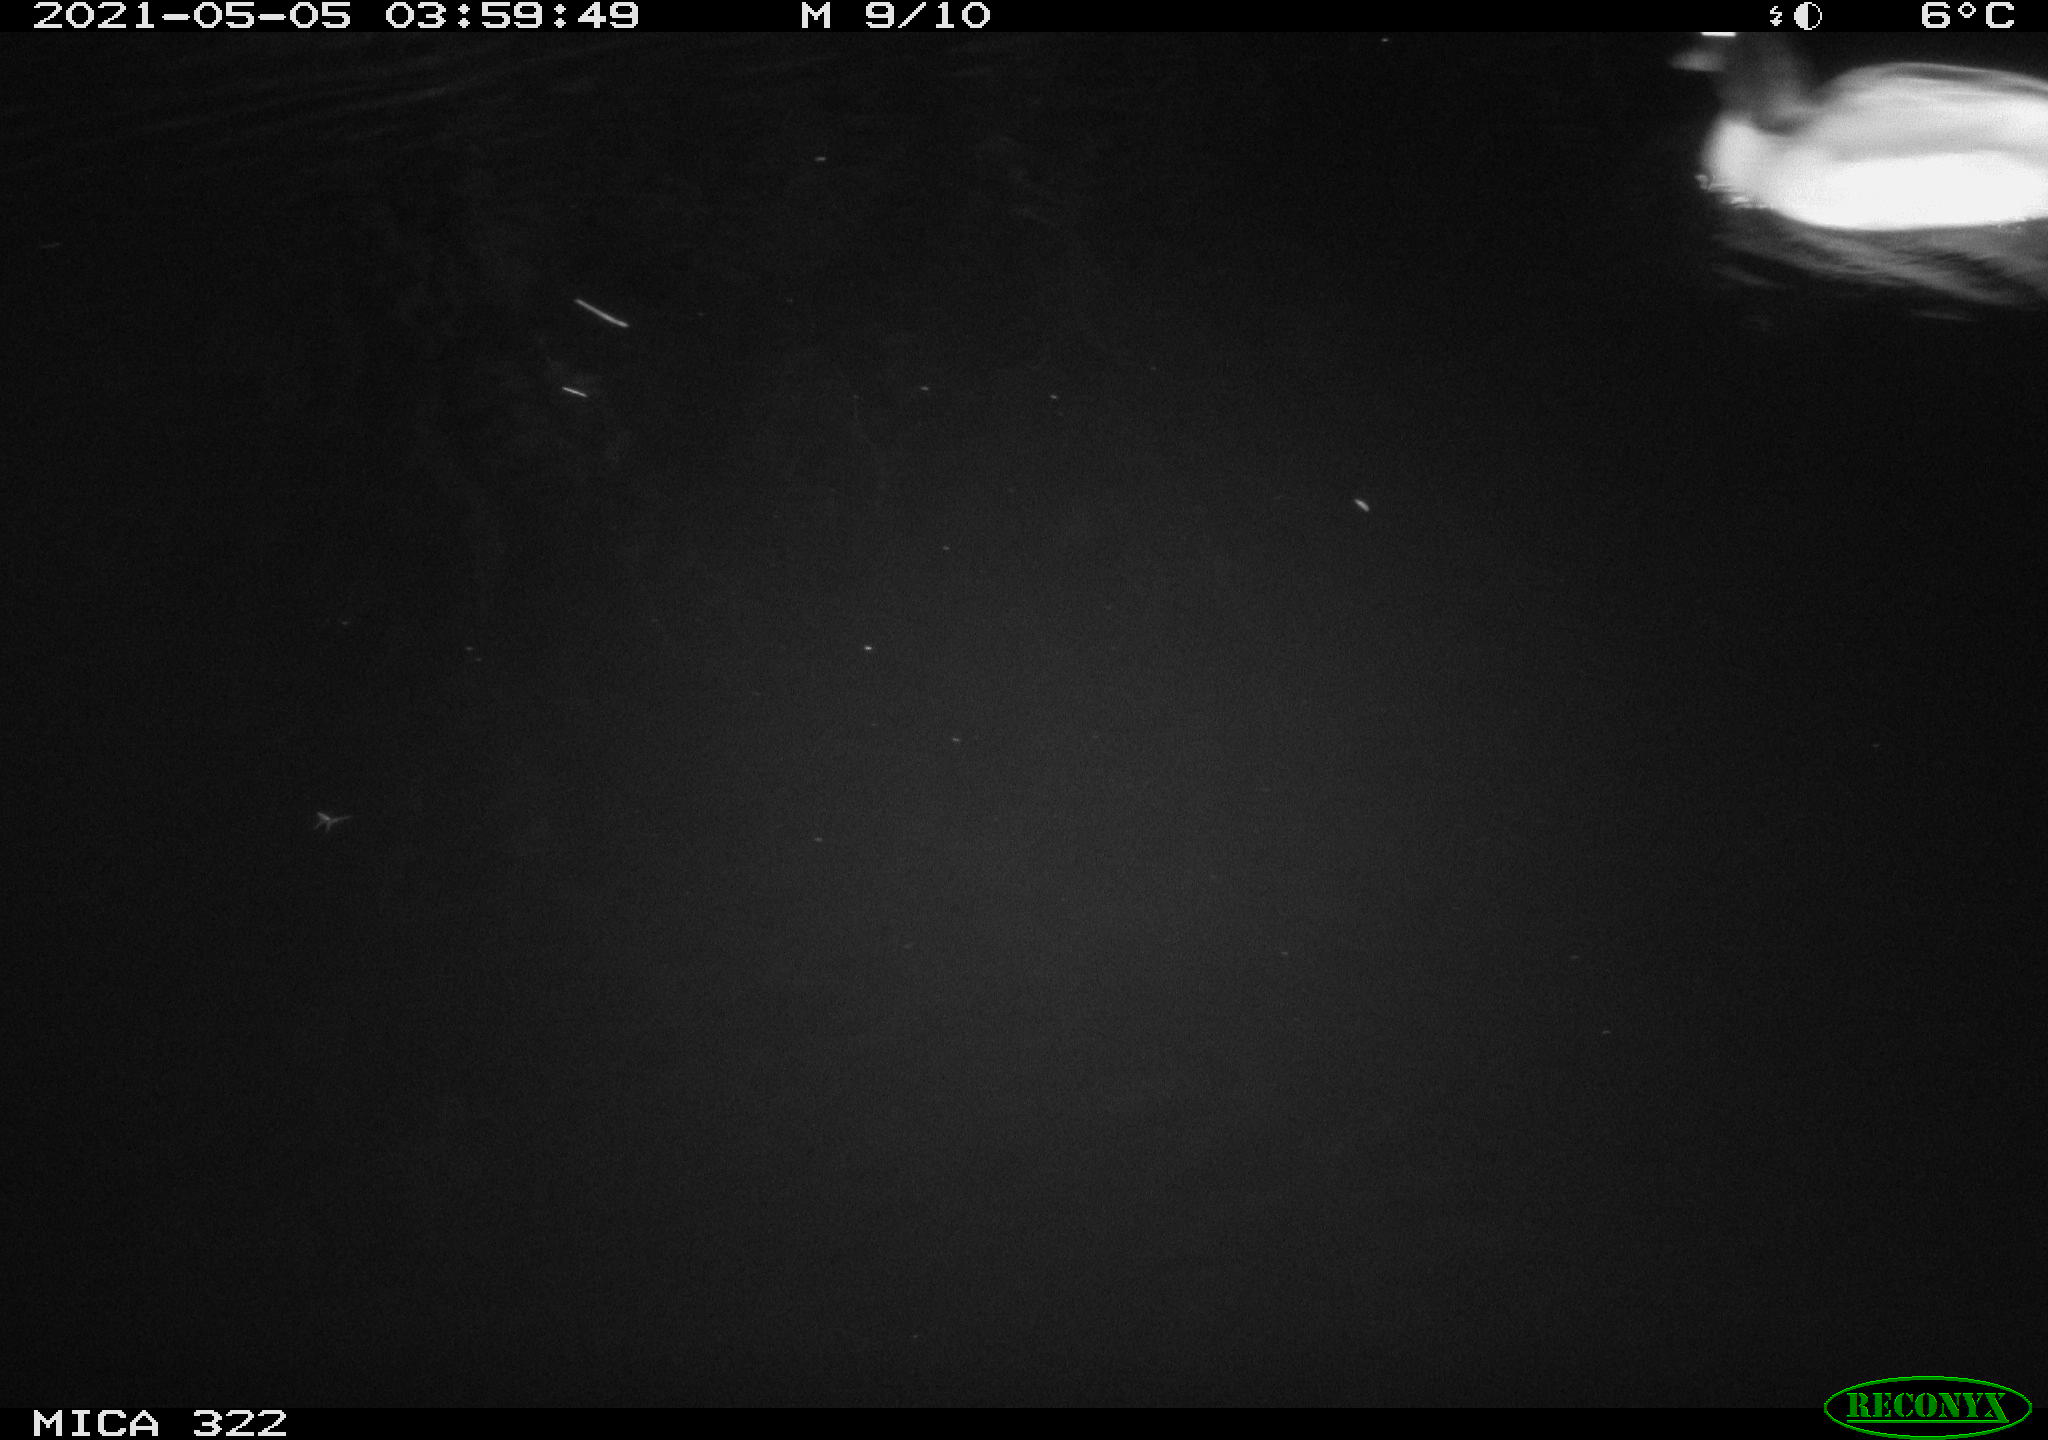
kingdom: Animalia
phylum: Chordata
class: Aves
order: Anseriformes
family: Anatidae
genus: Anas
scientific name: Anas platyrhynchos
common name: Mallard
